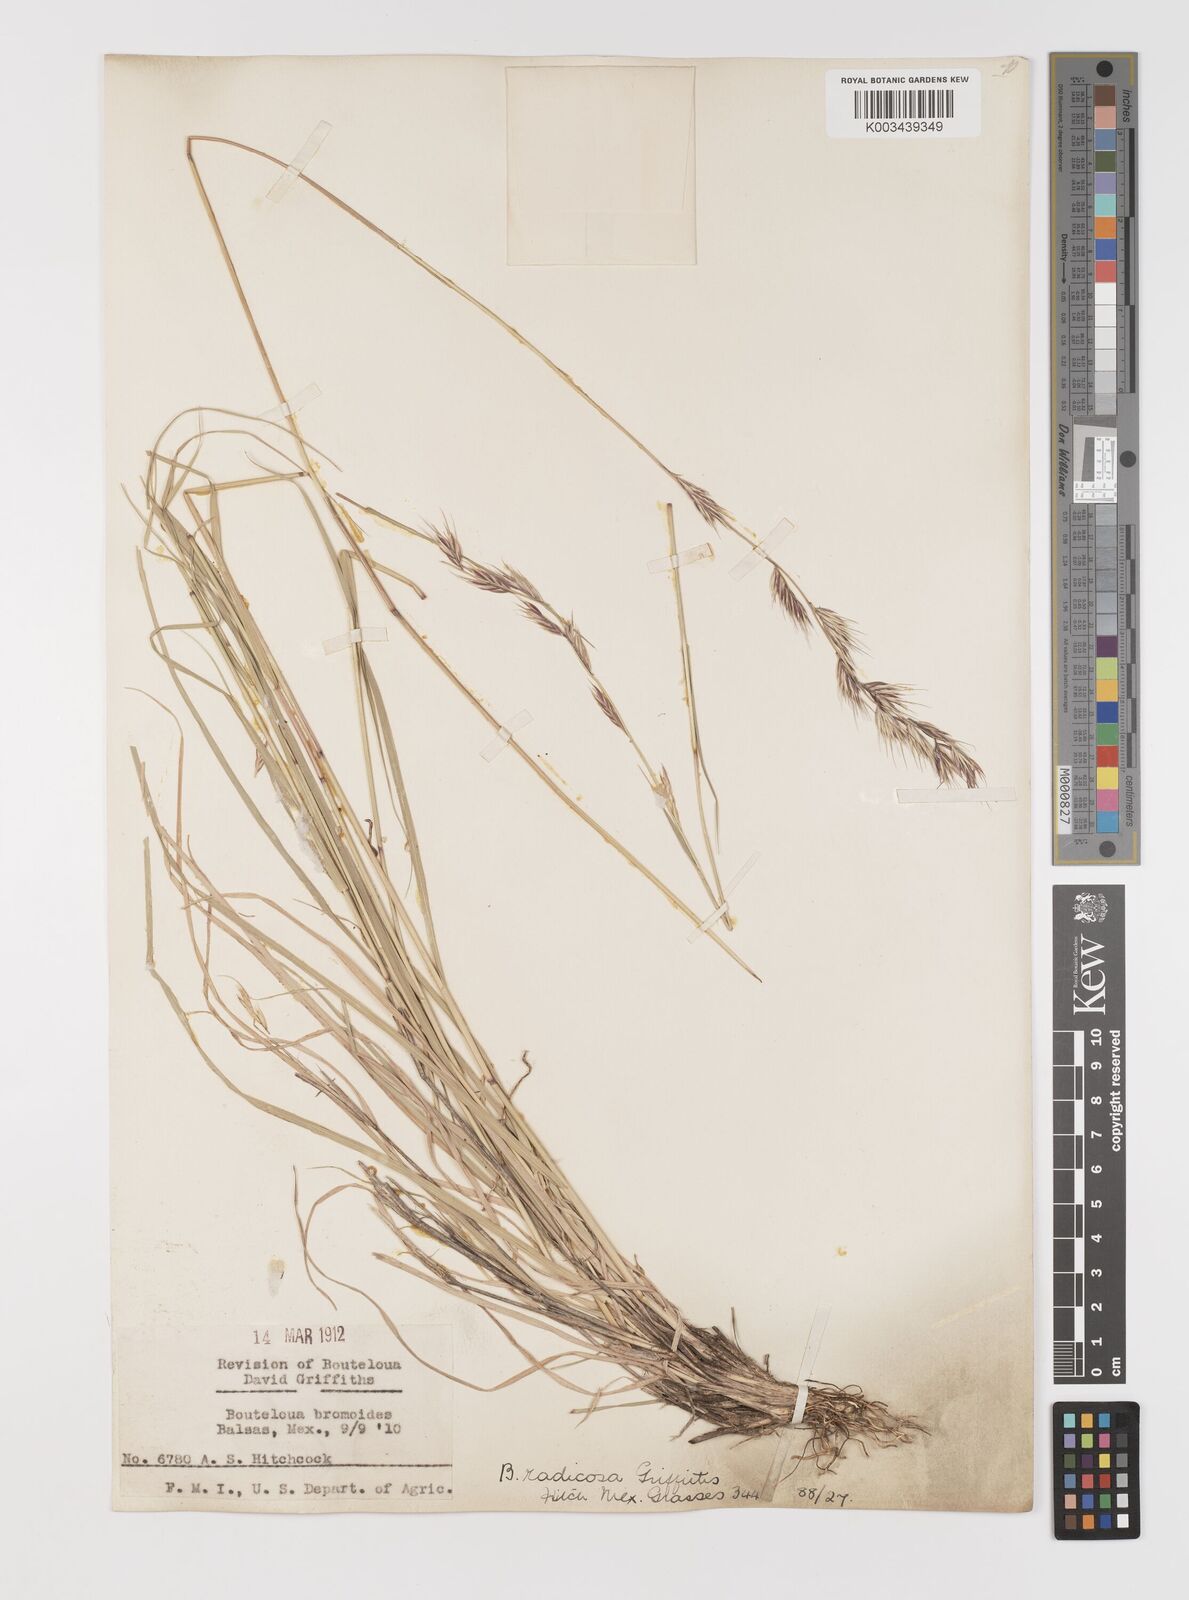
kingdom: Plantae
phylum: Tracheophyta
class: Liliopsida
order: Poales
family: Poaceae
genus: Bouteloua
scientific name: Bouteloua radicosa
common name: Purple grama
